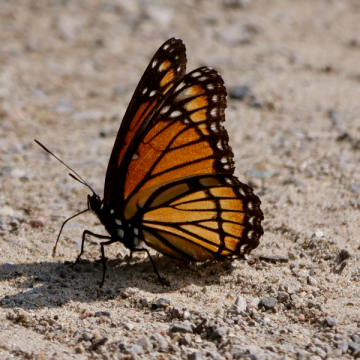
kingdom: Animalia
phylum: Arthropoda
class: Insecta
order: Lepidoptera
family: Nymphalidae
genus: Limenitis
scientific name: Limenitis archippus
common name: Viceroy
